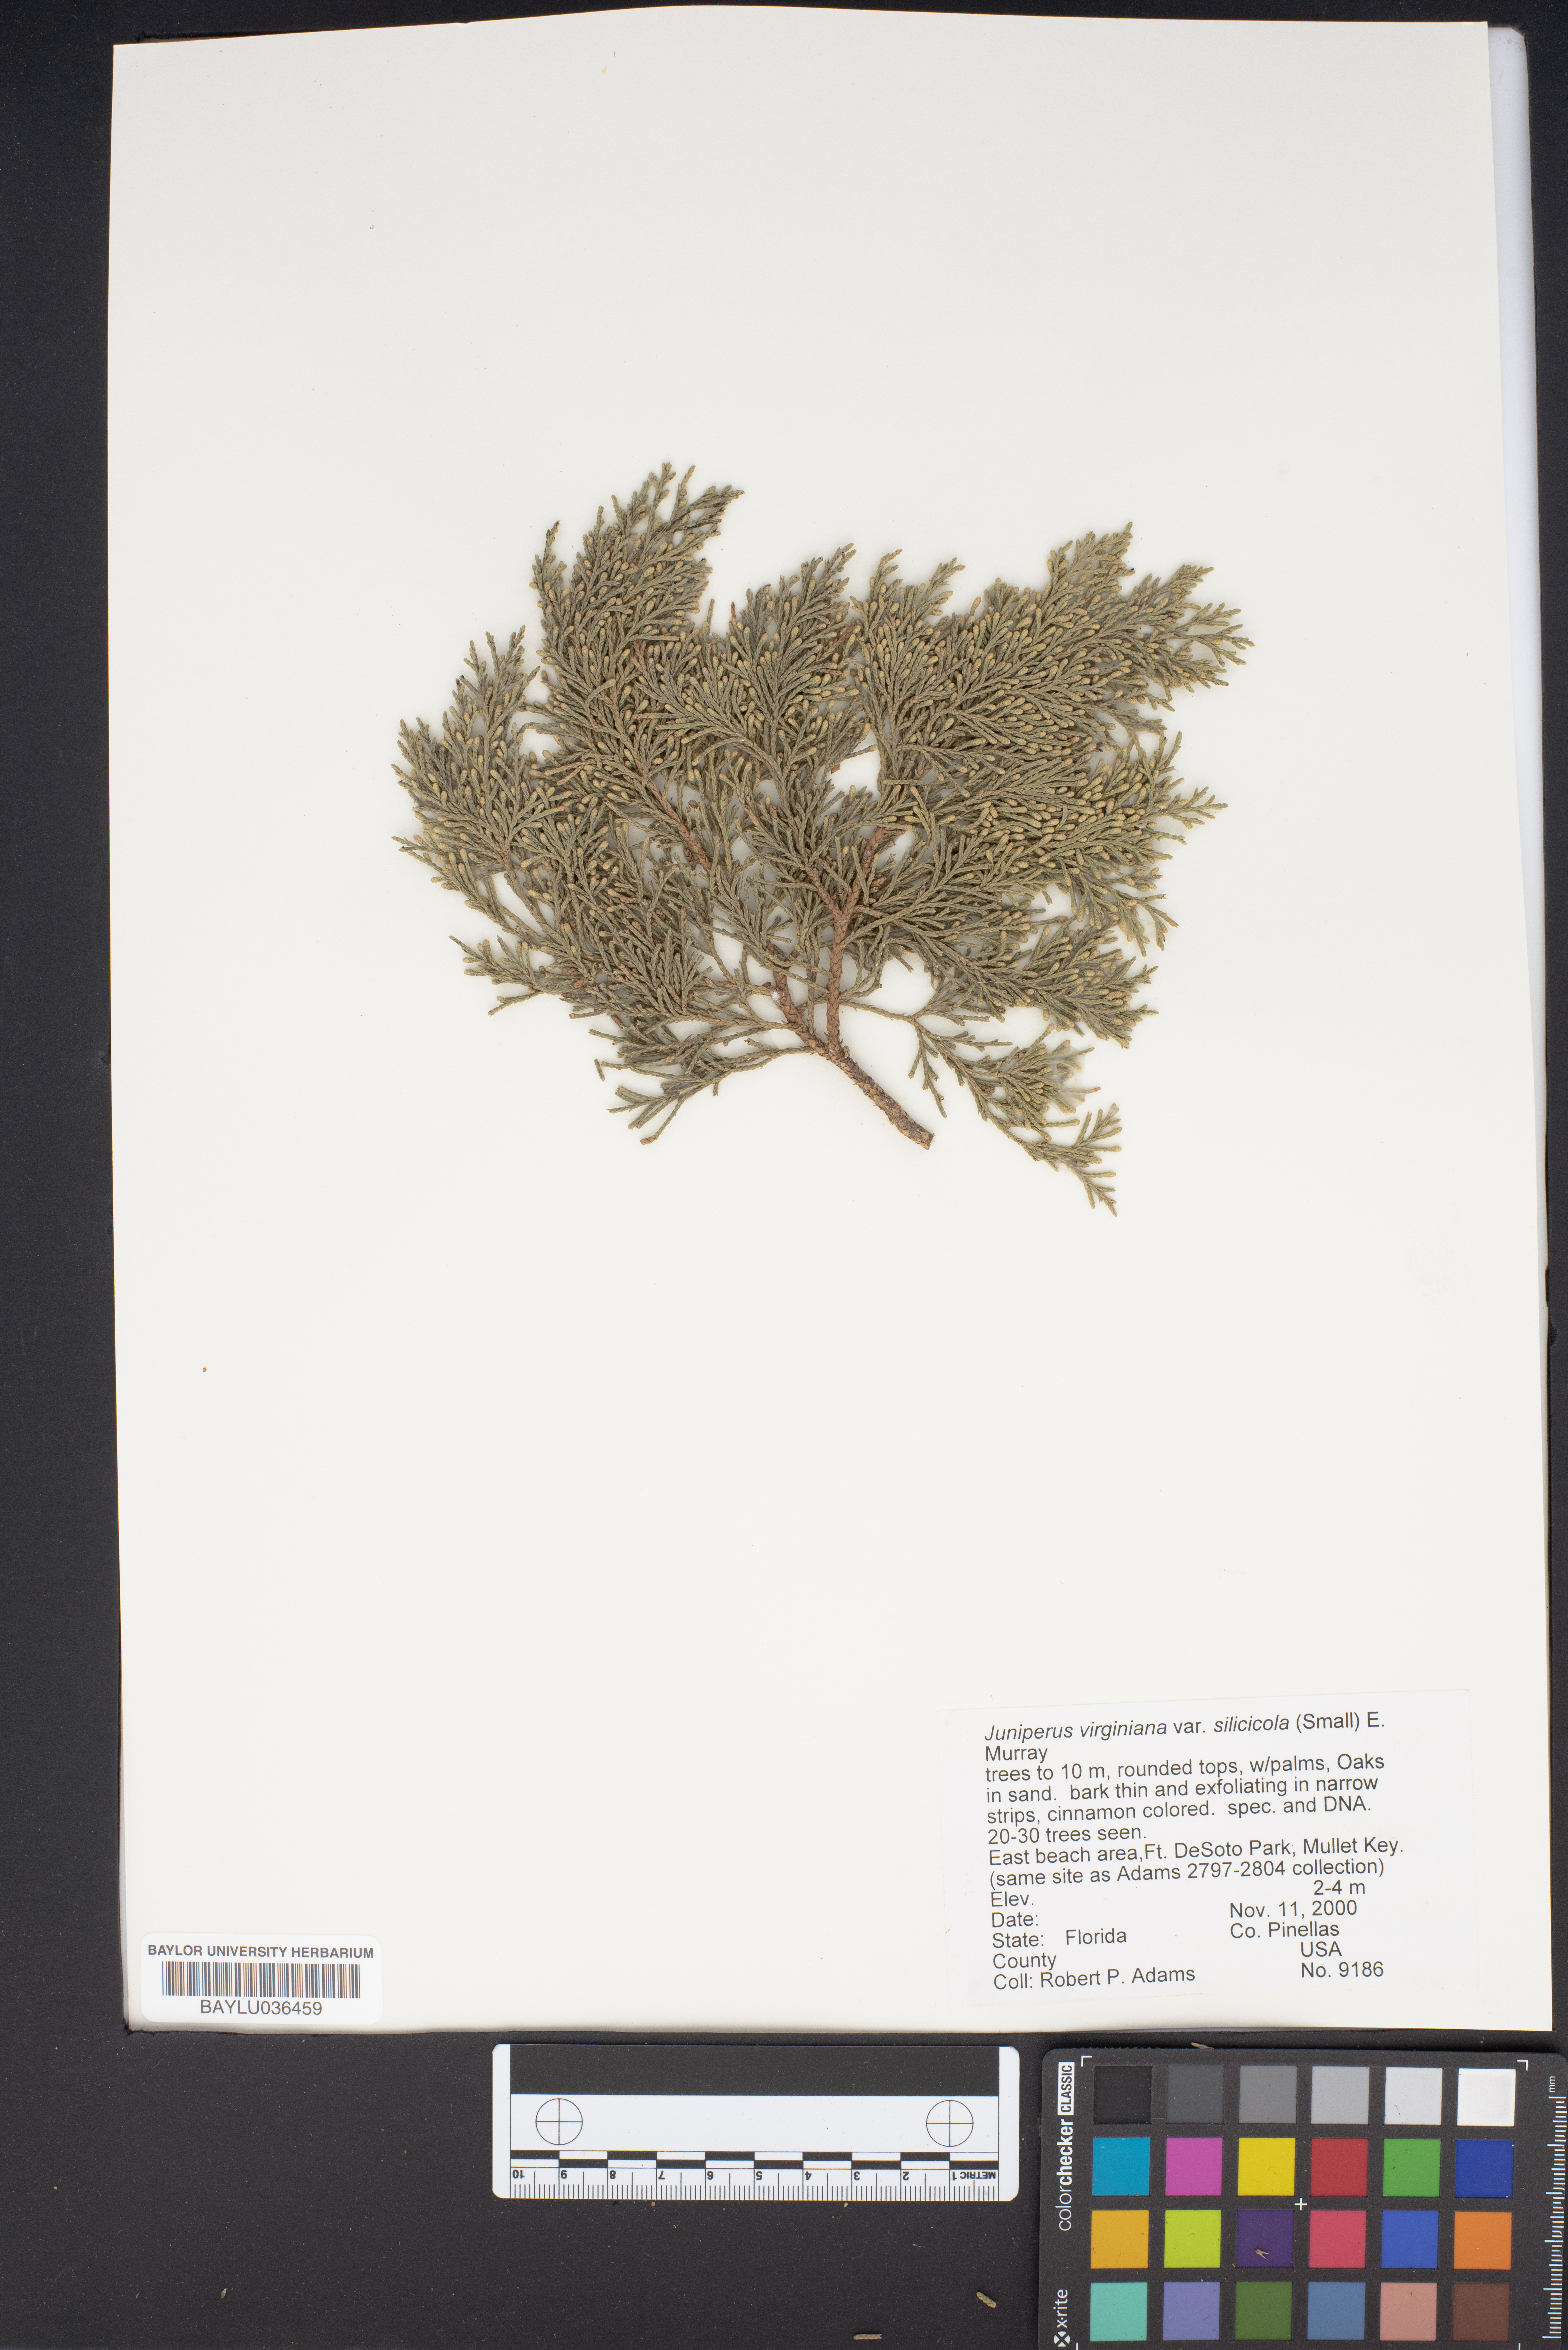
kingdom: Plantae
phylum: Tracheophyta
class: Pinopsida
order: Pinales
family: Cupressaceae
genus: Juniperus
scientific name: Juniperus virginiana
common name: Red juniper
